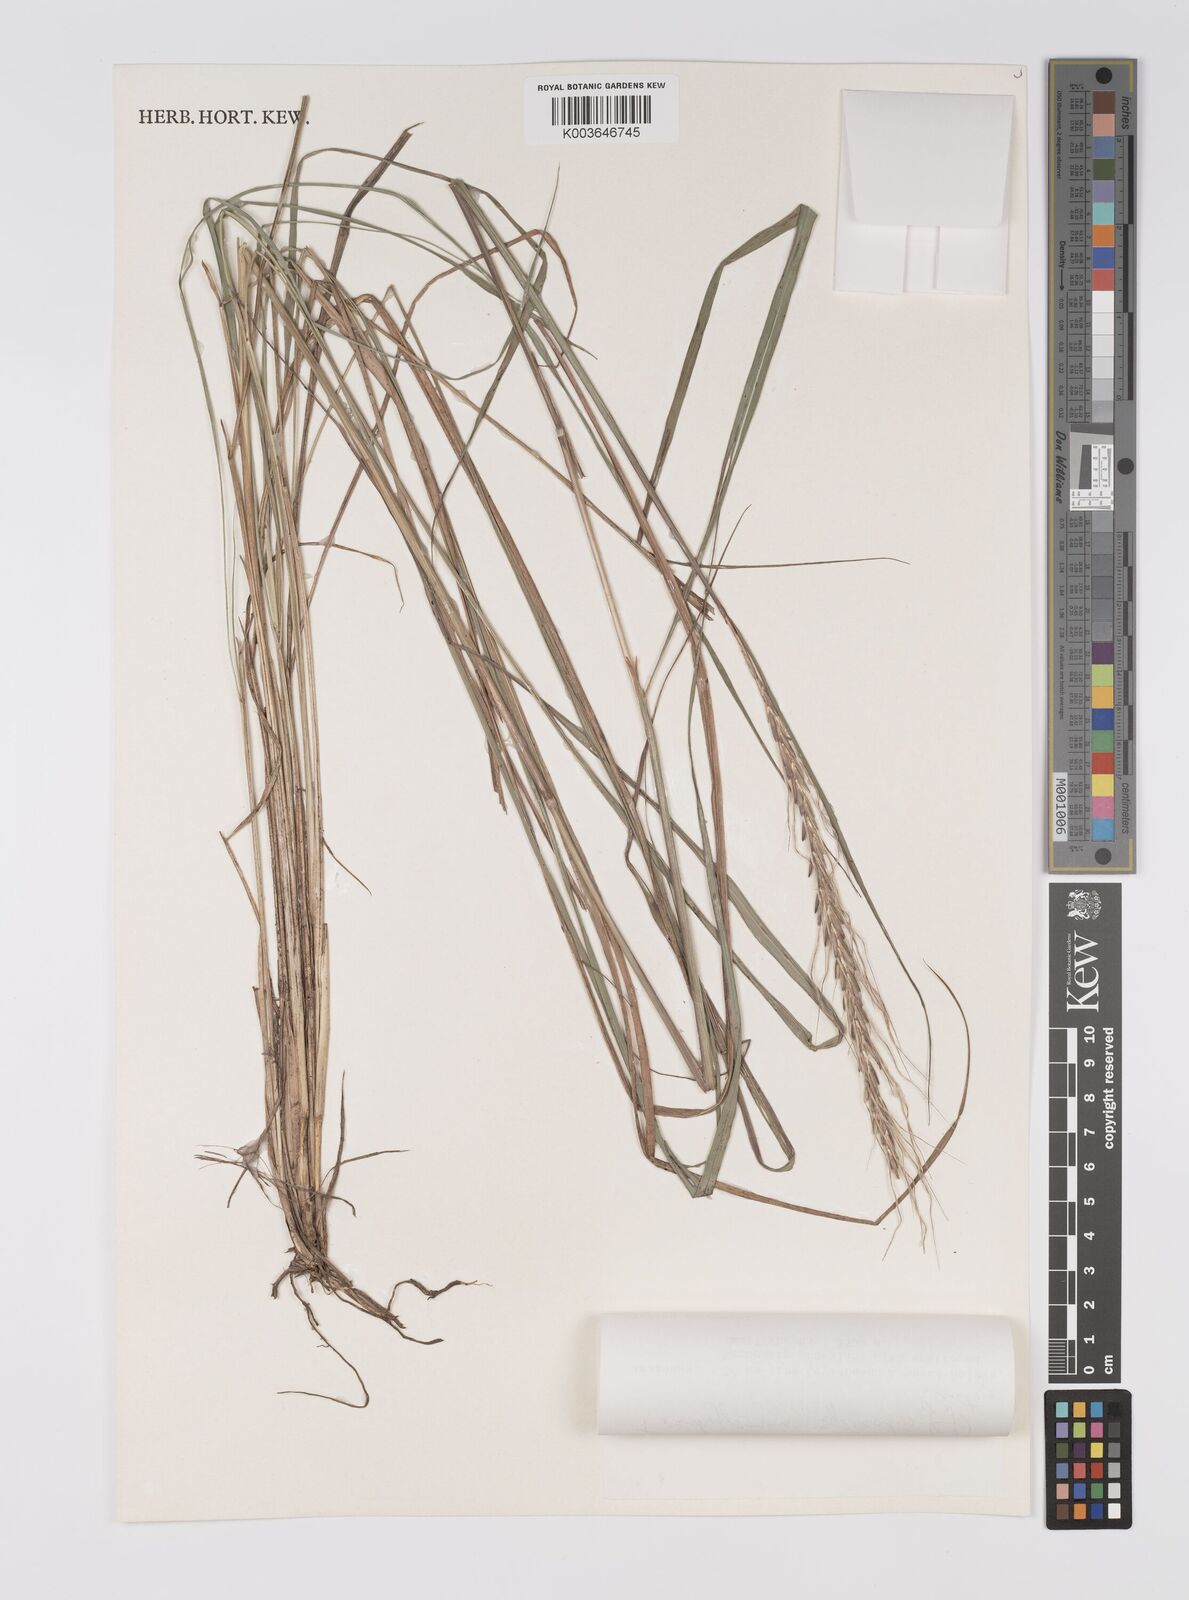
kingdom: Plantae
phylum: Tracheophyta
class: Liliopsida
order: Poales
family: Poaceae
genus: Trachypogon
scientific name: Trachypogon spicatus
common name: Crinkle-awn
